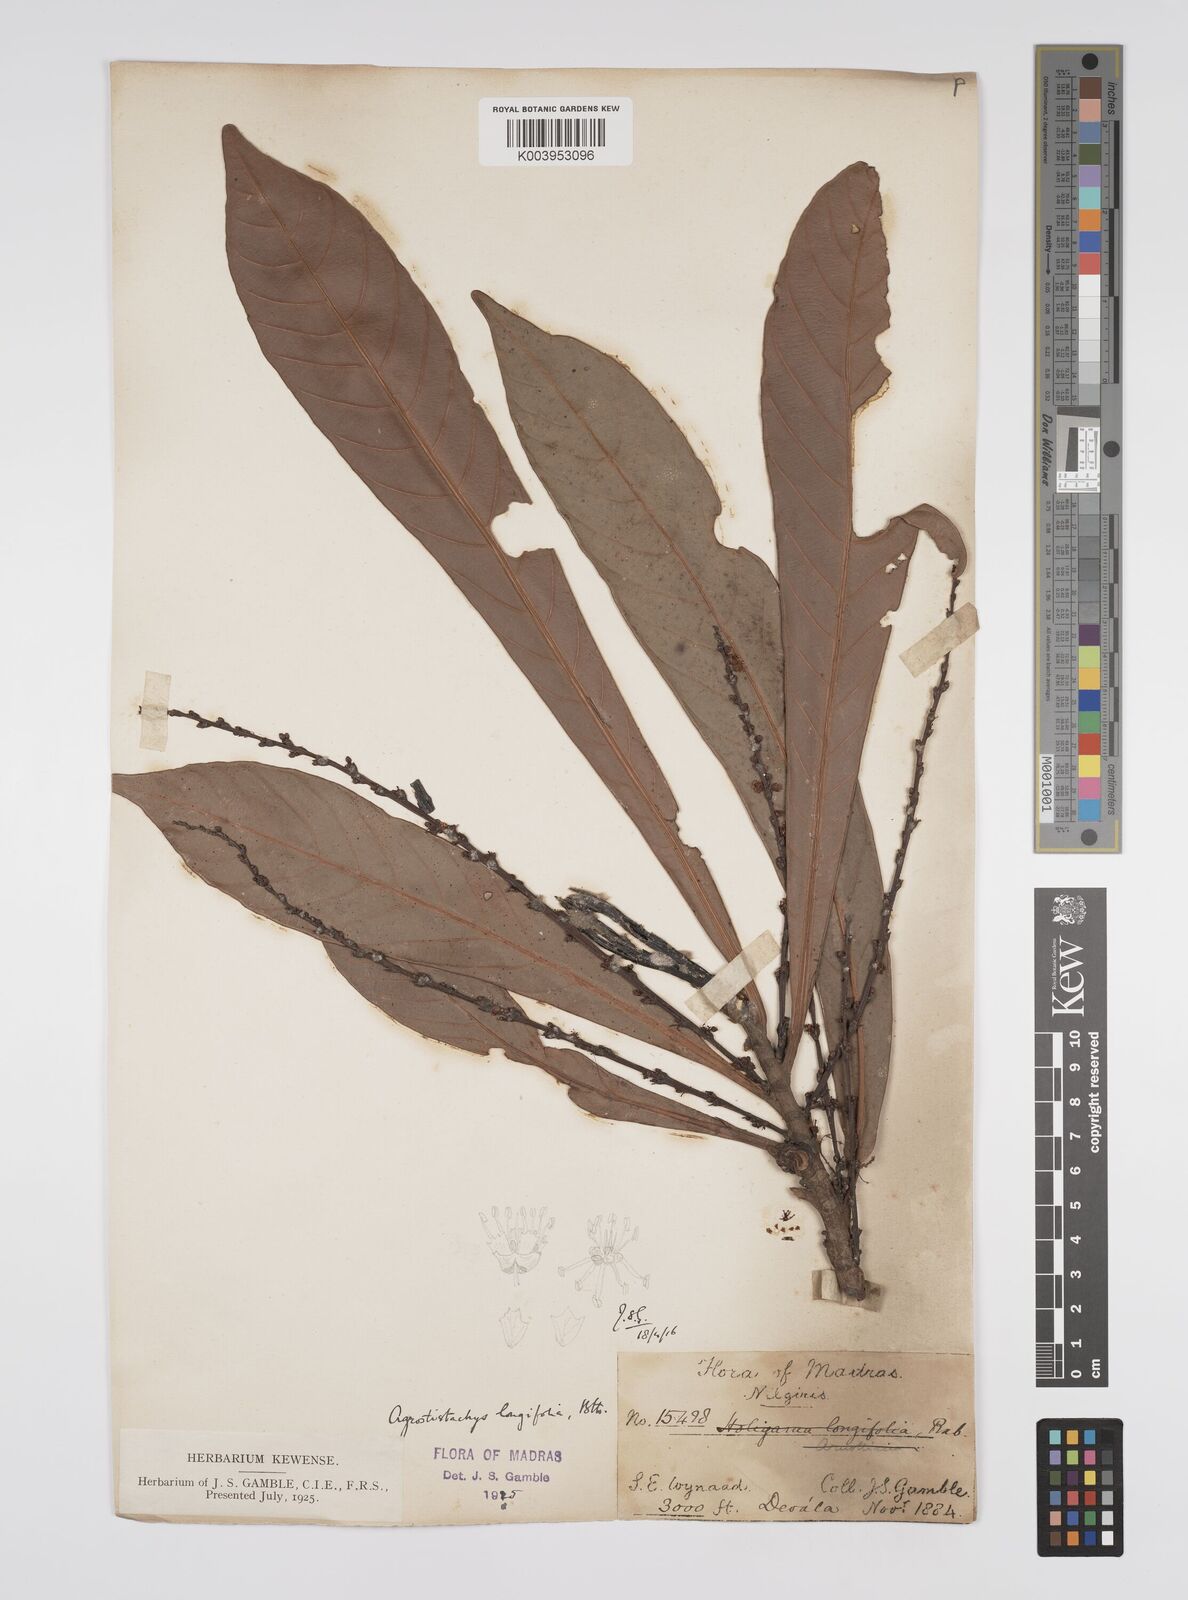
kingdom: Plantae
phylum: Tracheophyta
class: Magnoliopsida
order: Malpighiales
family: Euphorbiaceae
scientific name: Euphorbiaceae
